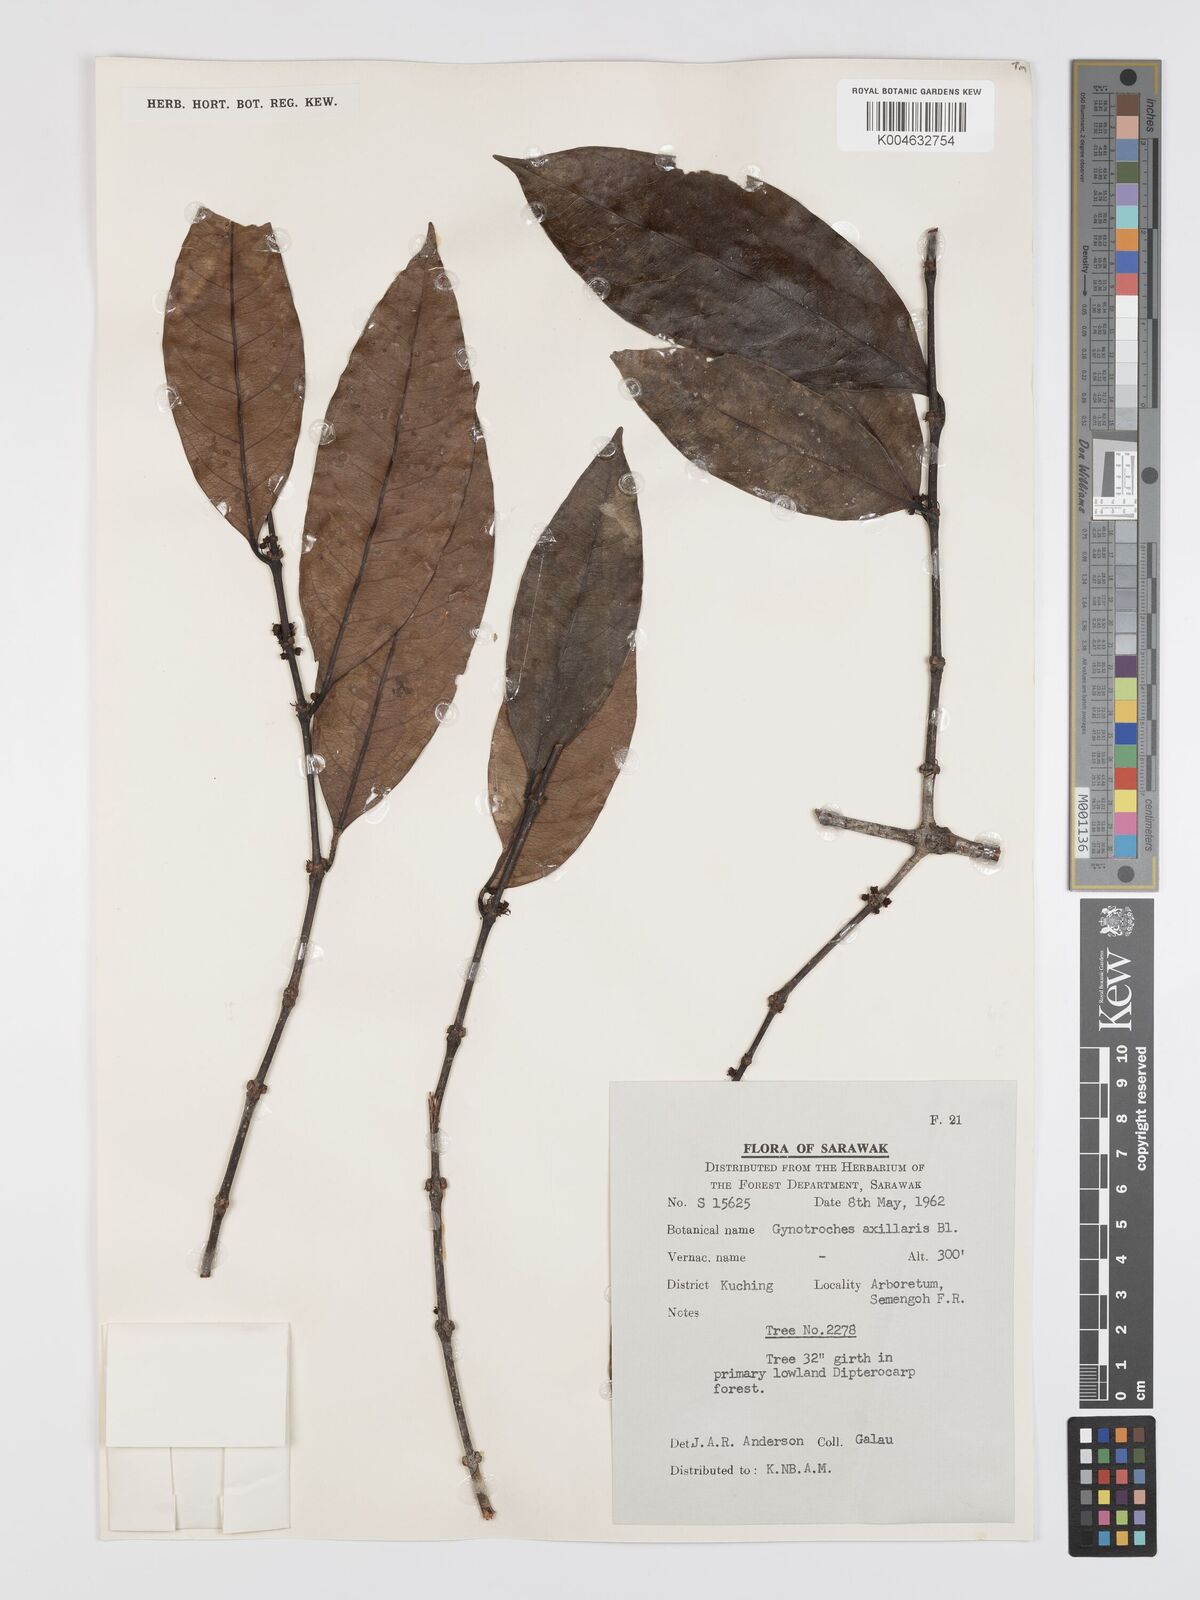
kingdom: Plantae
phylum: Tracheophyta
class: Magnoliopsida
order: Malpighiales
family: Rhizophoraceae
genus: Gynotroches
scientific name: Gynotroches axillaris
